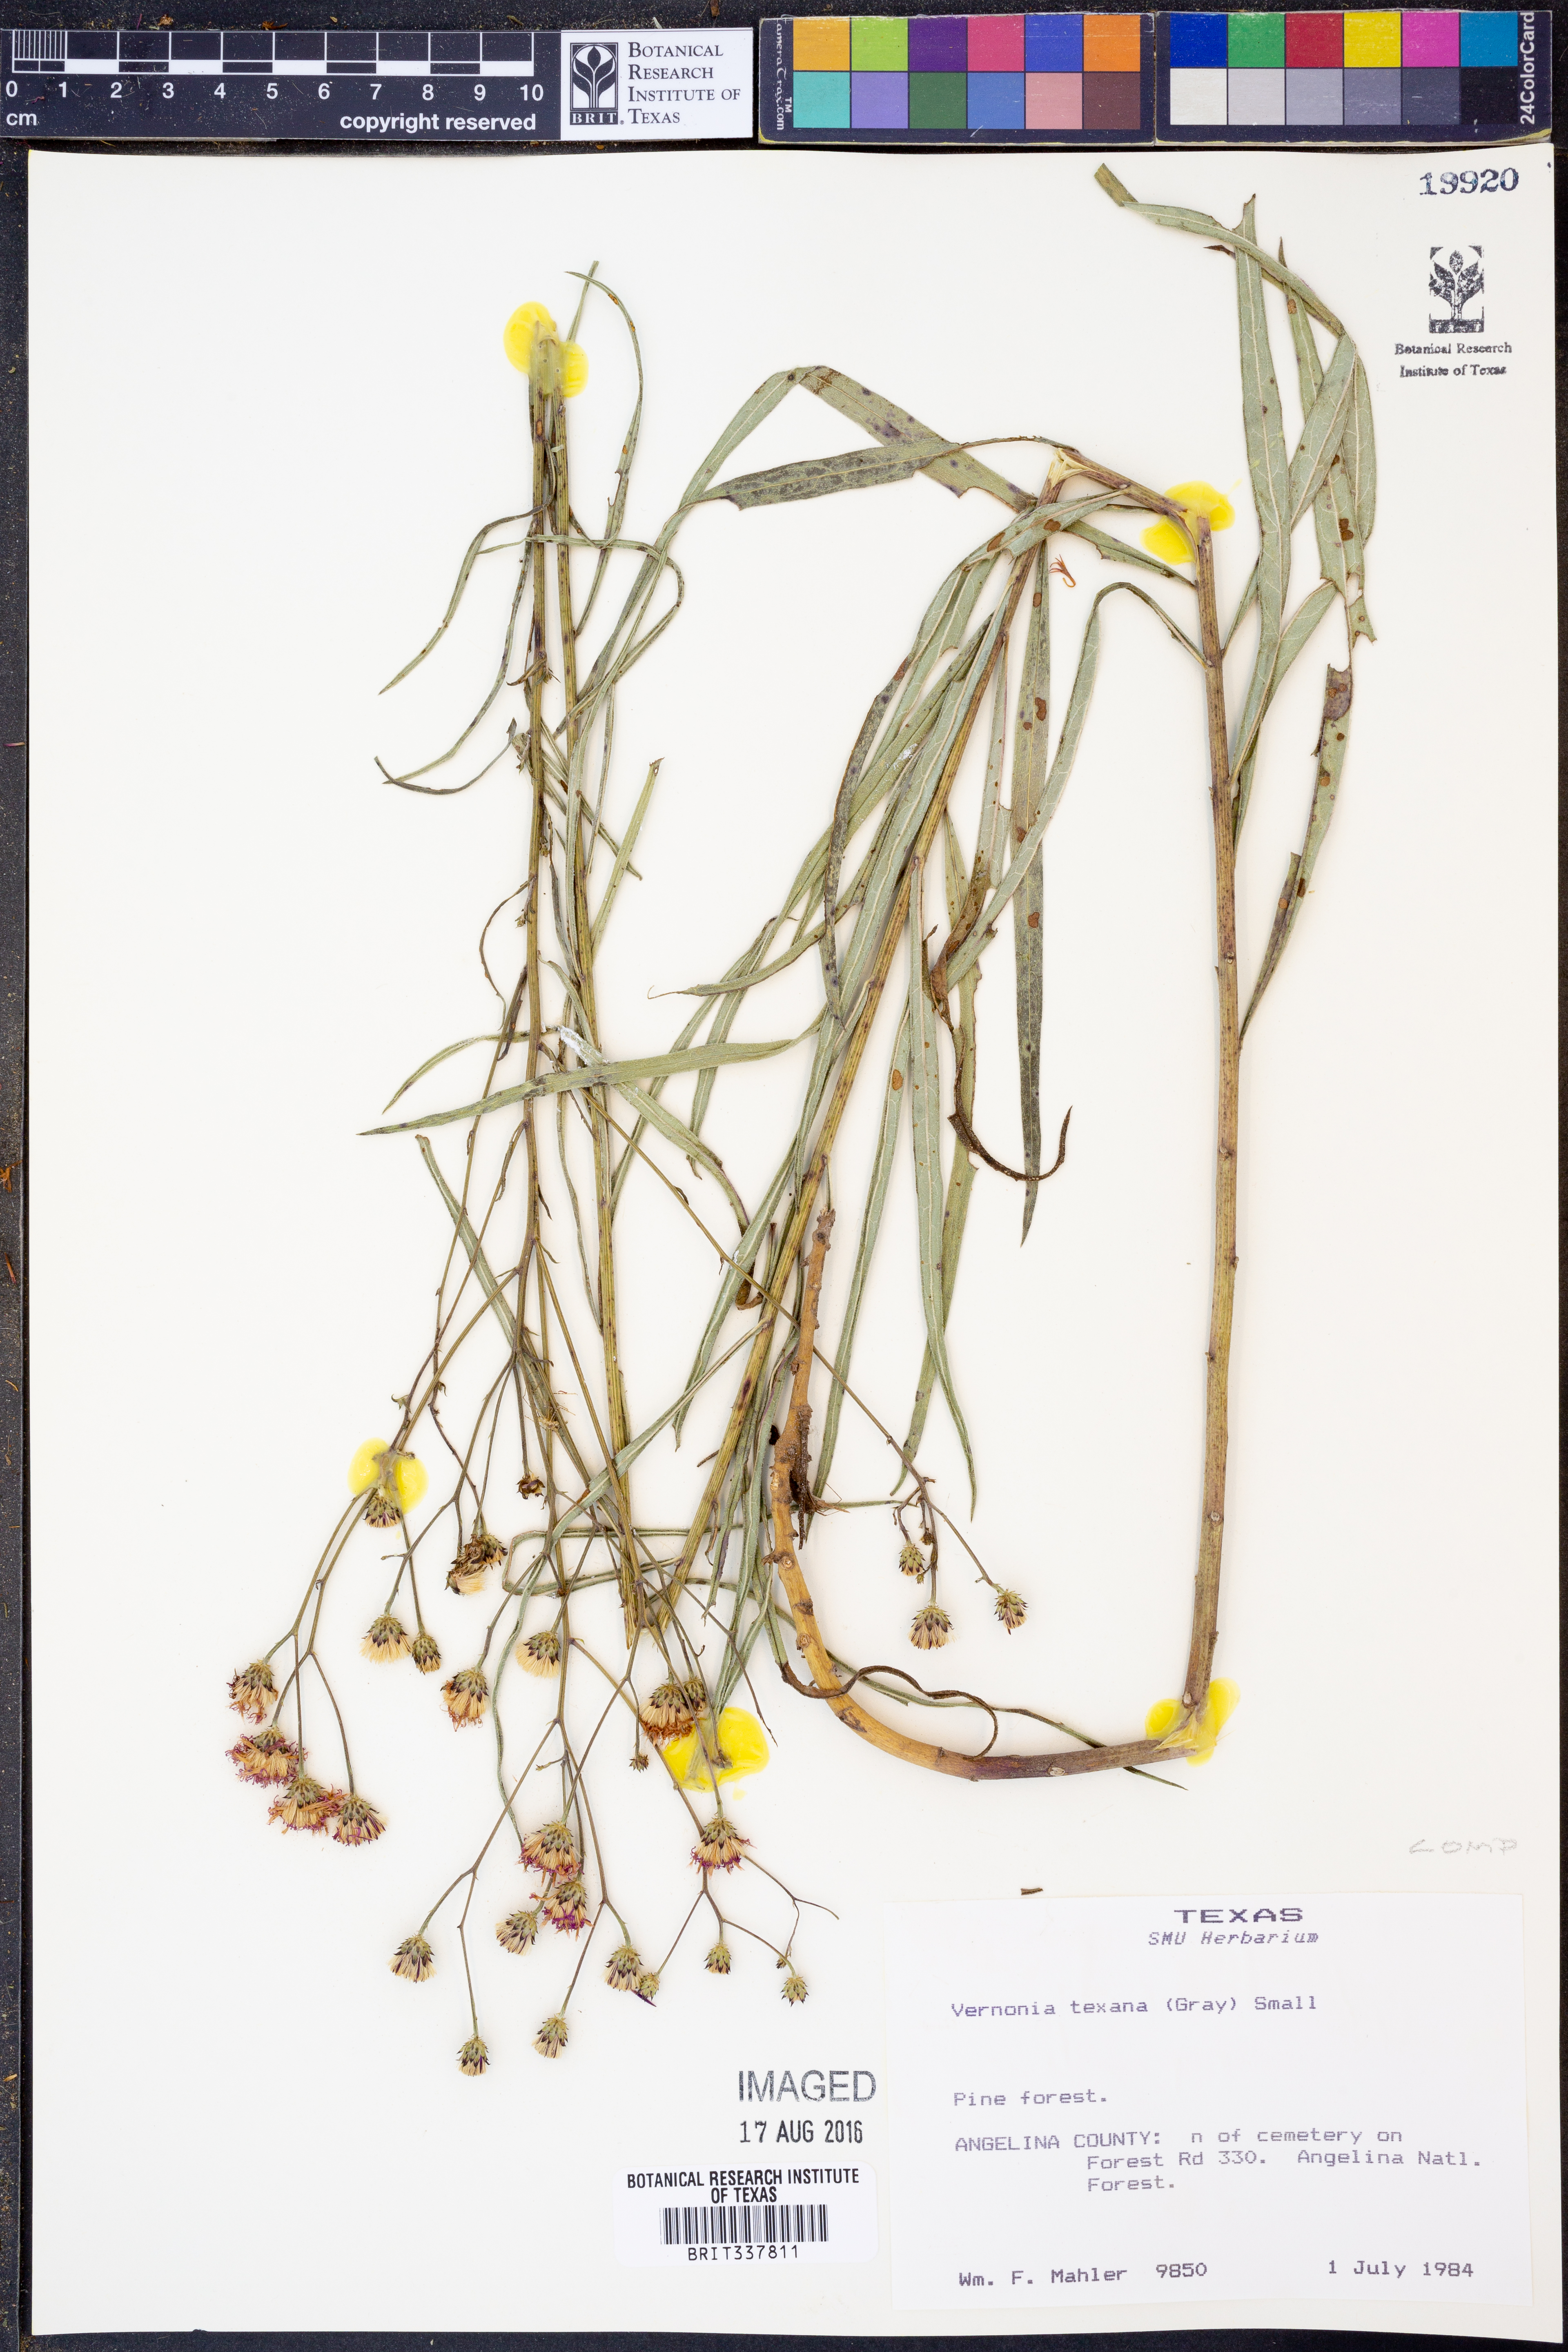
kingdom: Plantae
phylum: Tracheophyta
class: Magnoliopsida
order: Asterales
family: Asteraceae
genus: Vernonia
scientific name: Vernonia texana
